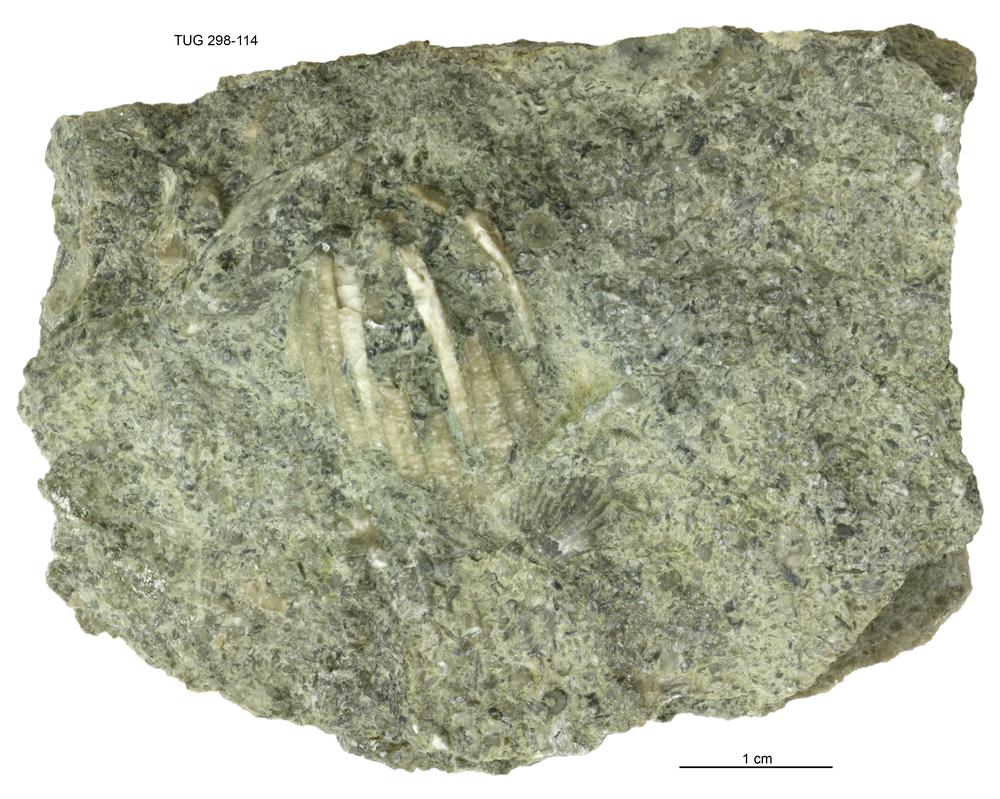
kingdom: Animalia
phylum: Echinodermata
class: Crinoidea
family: Eucalyptocrinitidae
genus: Eucalyptocrinites
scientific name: Eucalyptocrinites
